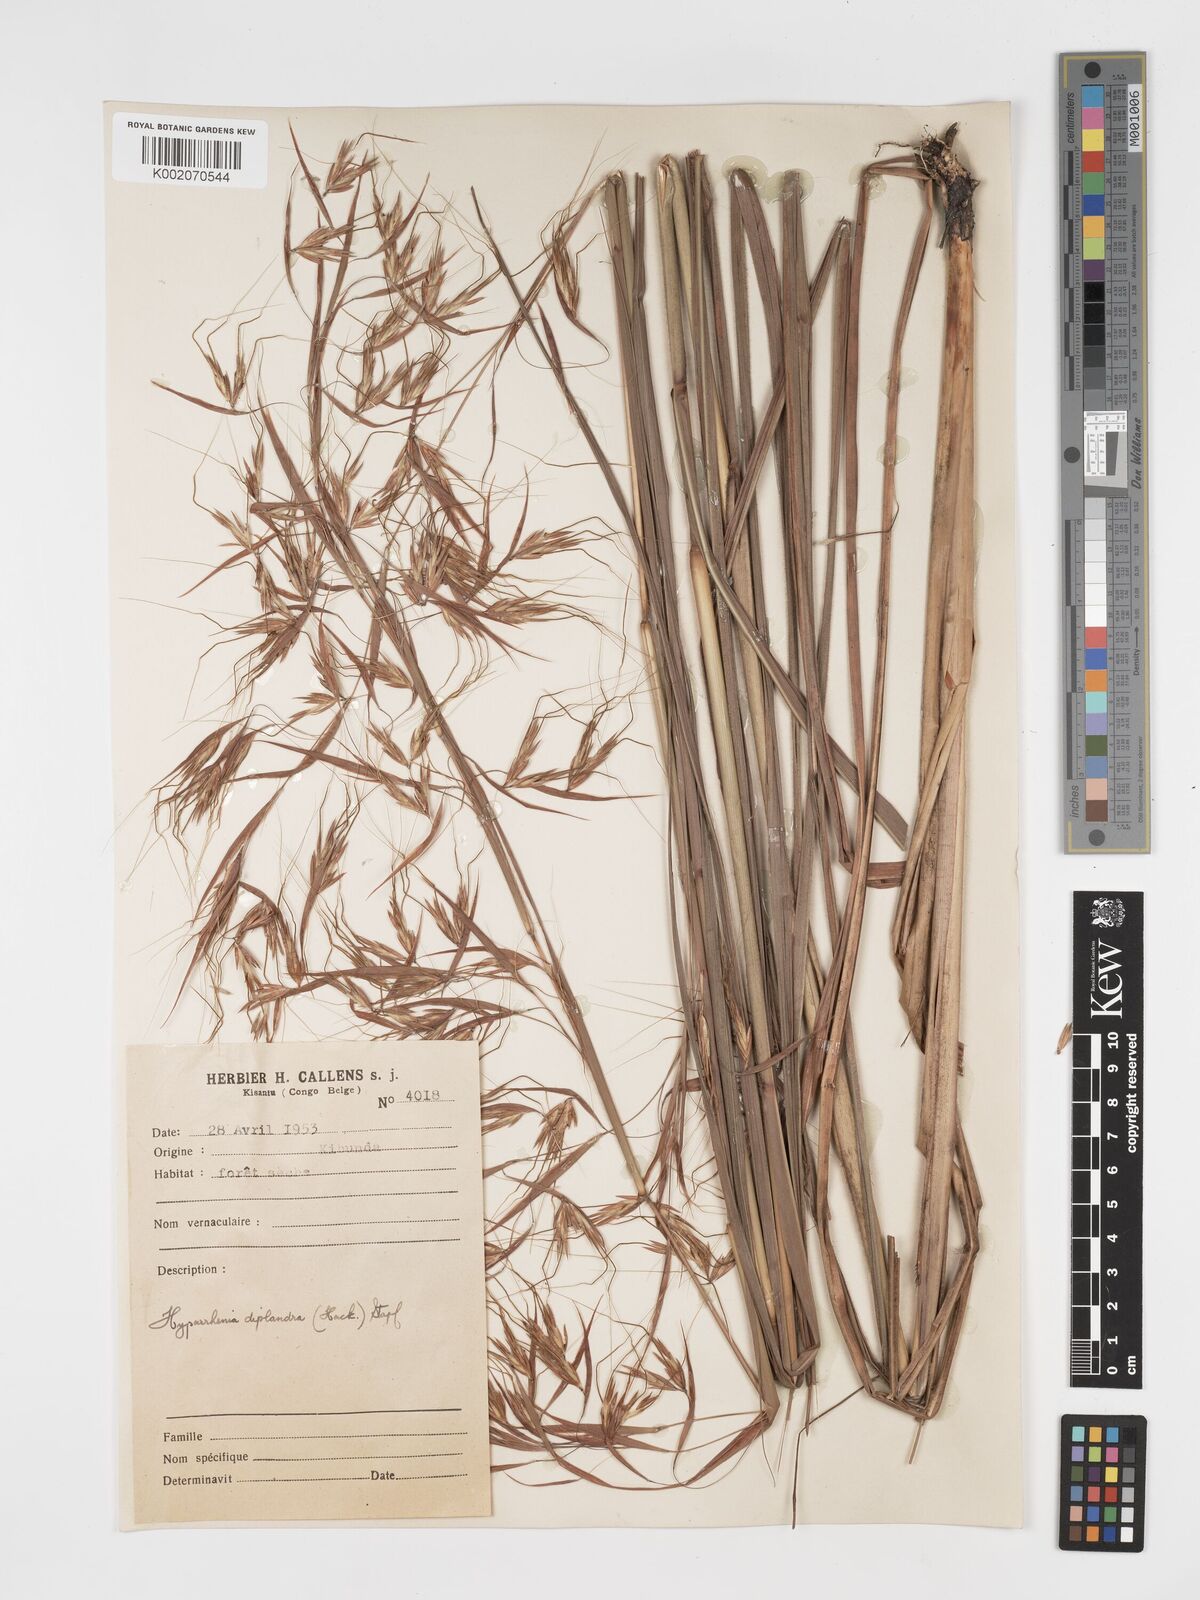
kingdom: Plantae
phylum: Tracheophyta
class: Liliopsida
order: Poales
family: Poaceae
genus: Hyparrhenia
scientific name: Hyparrhenia diplandra
